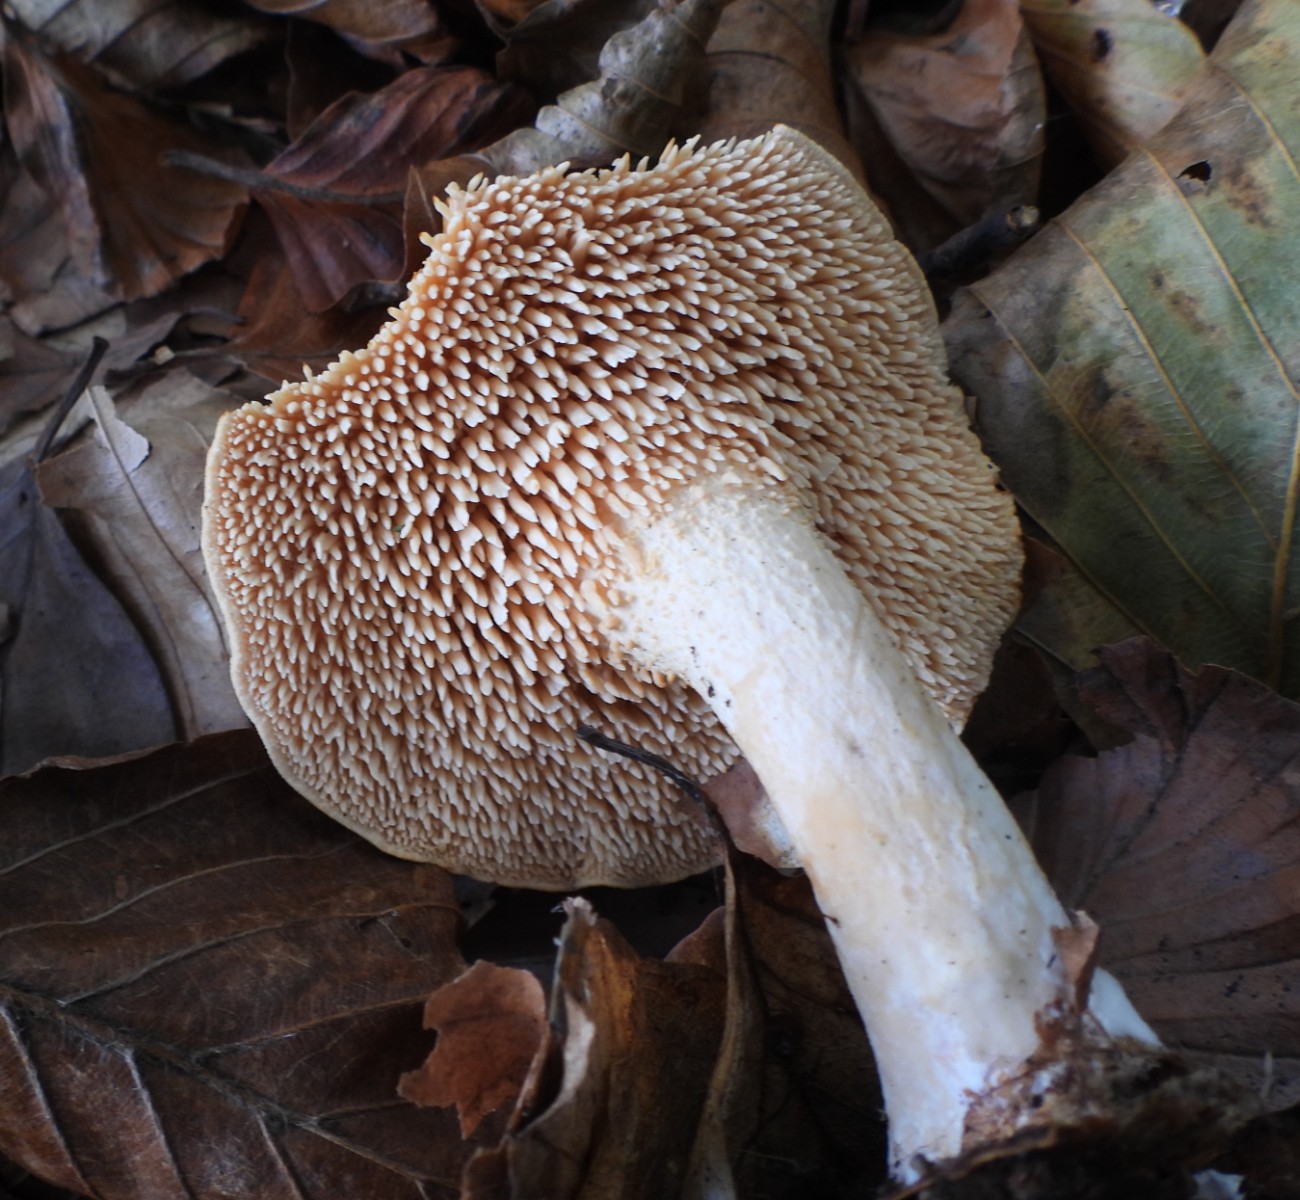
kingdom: Fungi
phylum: Basidiomycota
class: Agaricomycetes
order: Cantharellales
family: Hydnaceae
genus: Hydnum
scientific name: Hydnum
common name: pigsvamp
